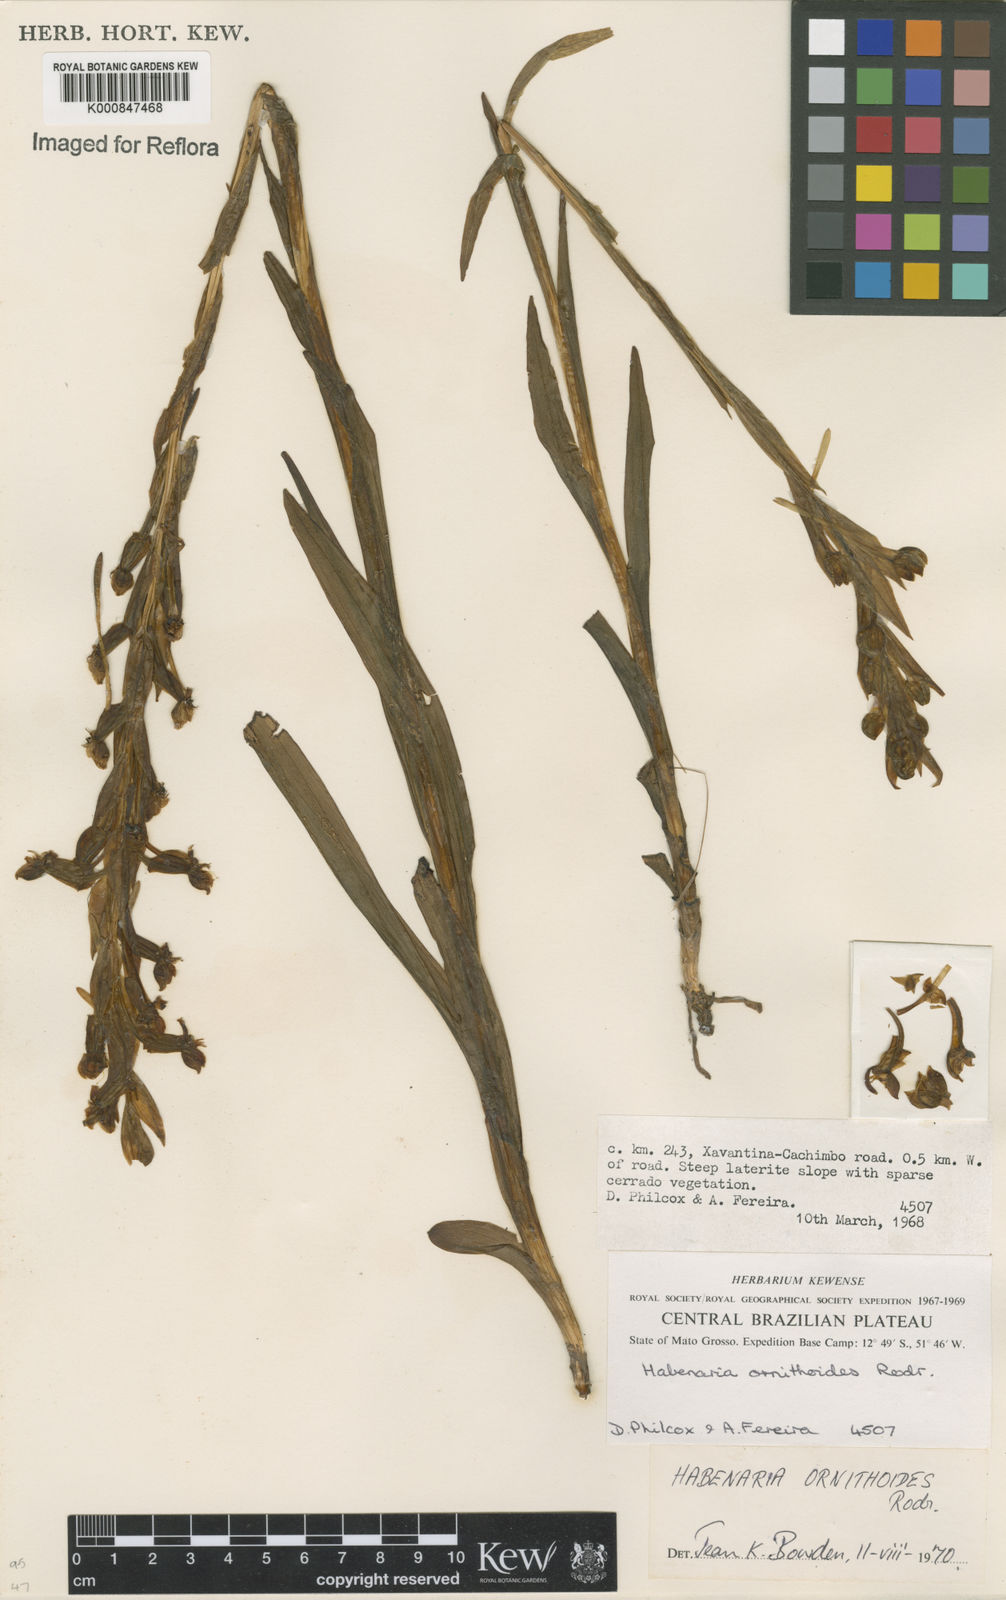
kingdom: Plantae
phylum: Tracheophyta
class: Liliopsida
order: Asparagales
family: Orchidaceae
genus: Habenaria
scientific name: Habenaria obtusa
